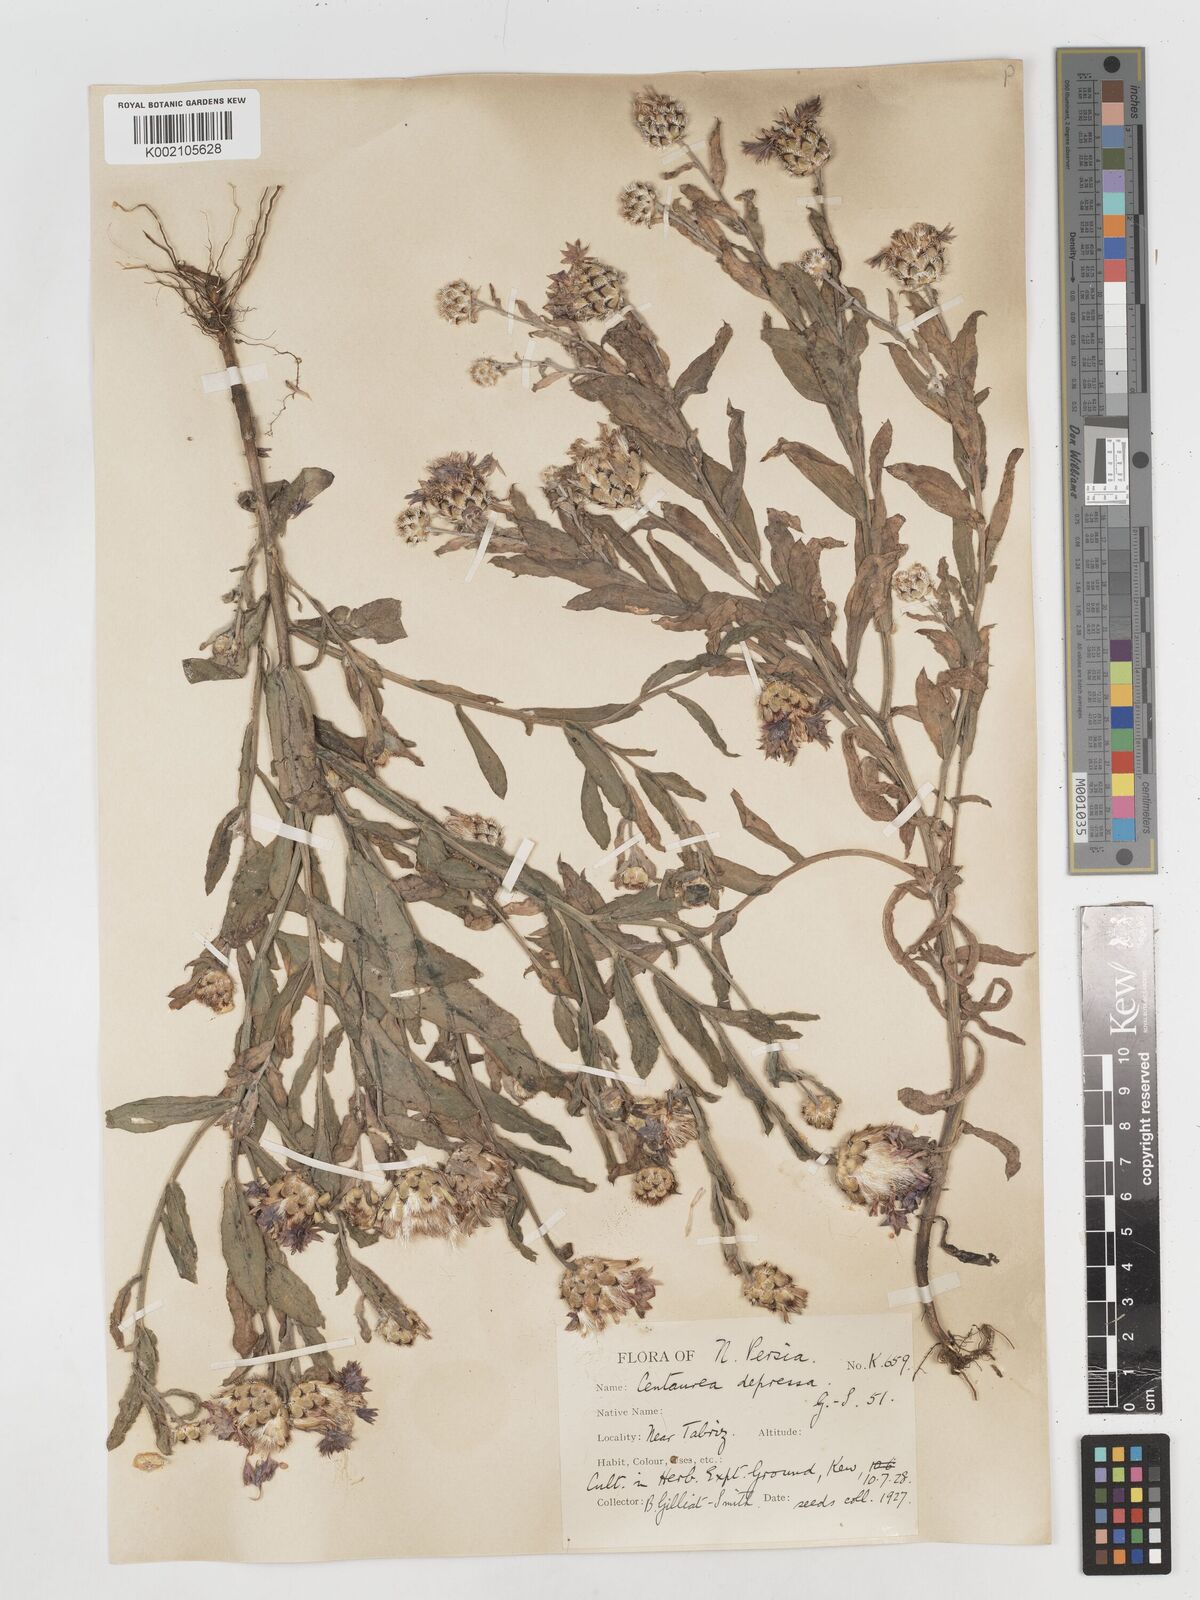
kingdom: Plantae
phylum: Tracheophyta
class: Magnoliopsida
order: Asterales
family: Asteraceae
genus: Centaurea
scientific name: Centaurea depressa
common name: Iranian knapweed
